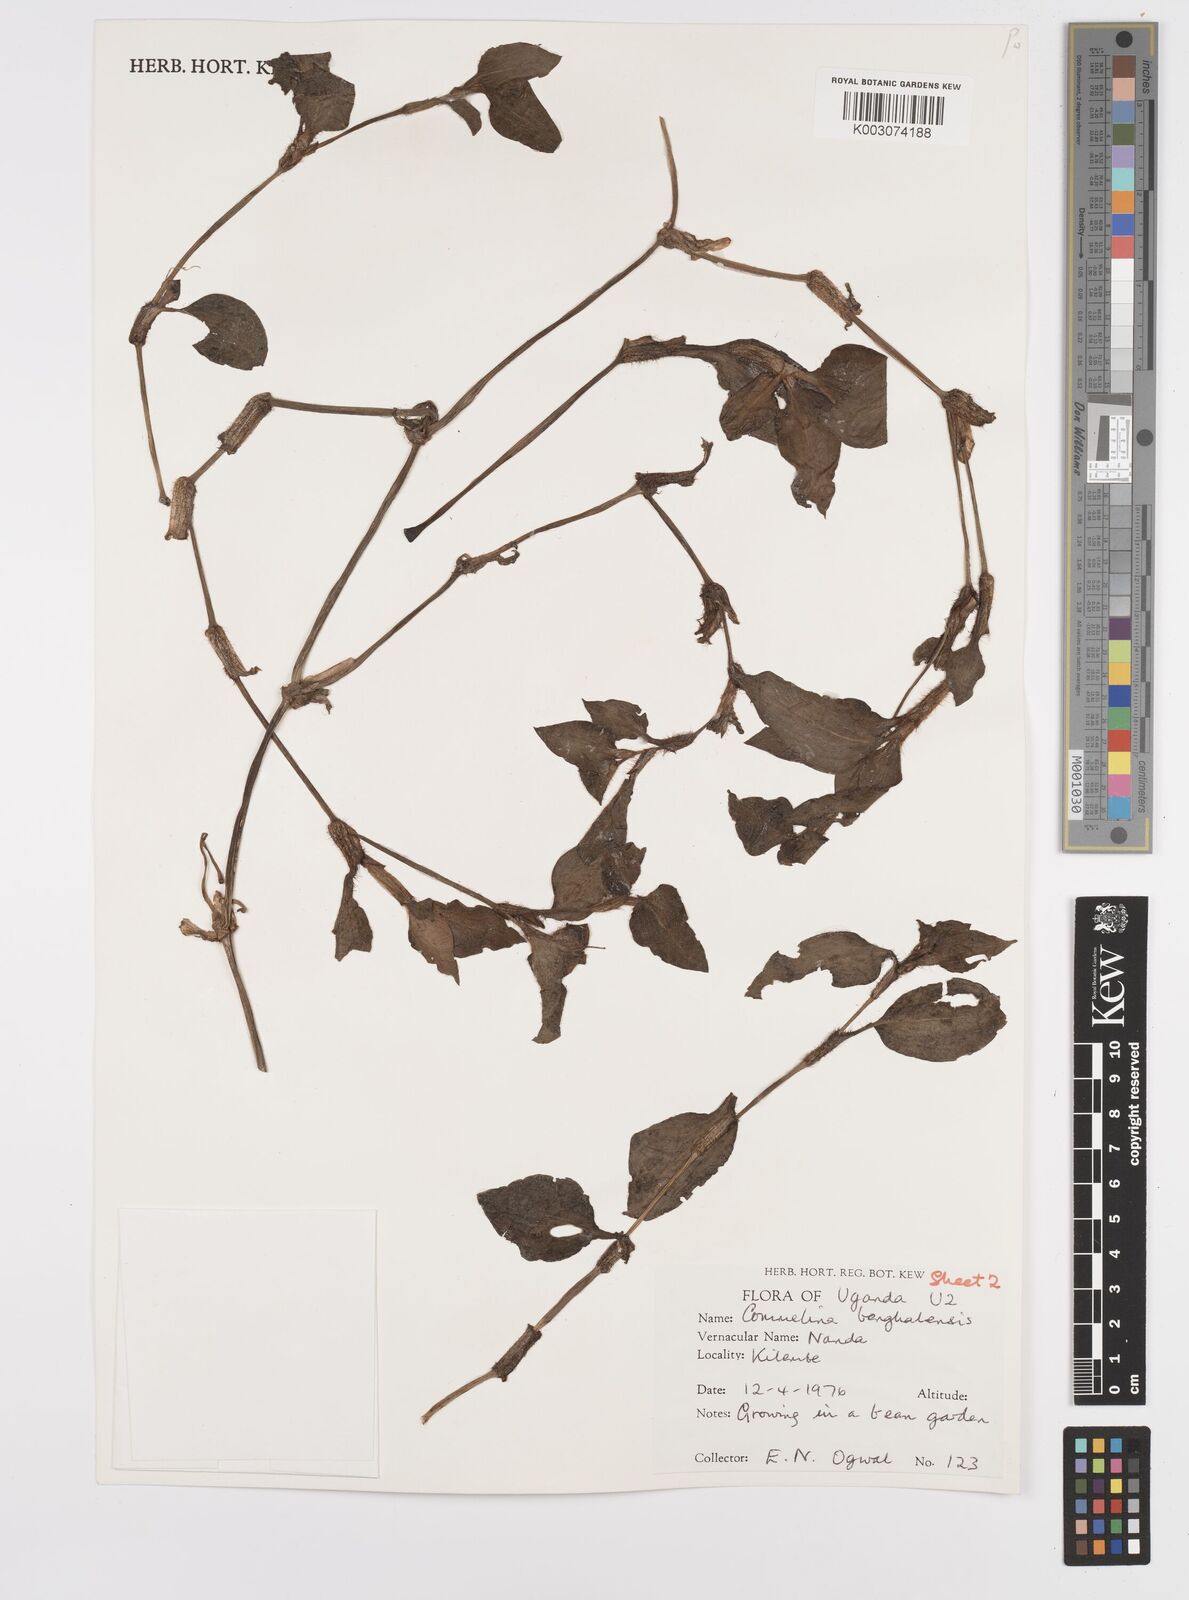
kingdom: Plantae
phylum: Tracheophyta
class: Liliopsida
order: Commelinales
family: Commelinaceae
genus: Commelina
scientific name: Commelina benghalensis
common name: Jio
